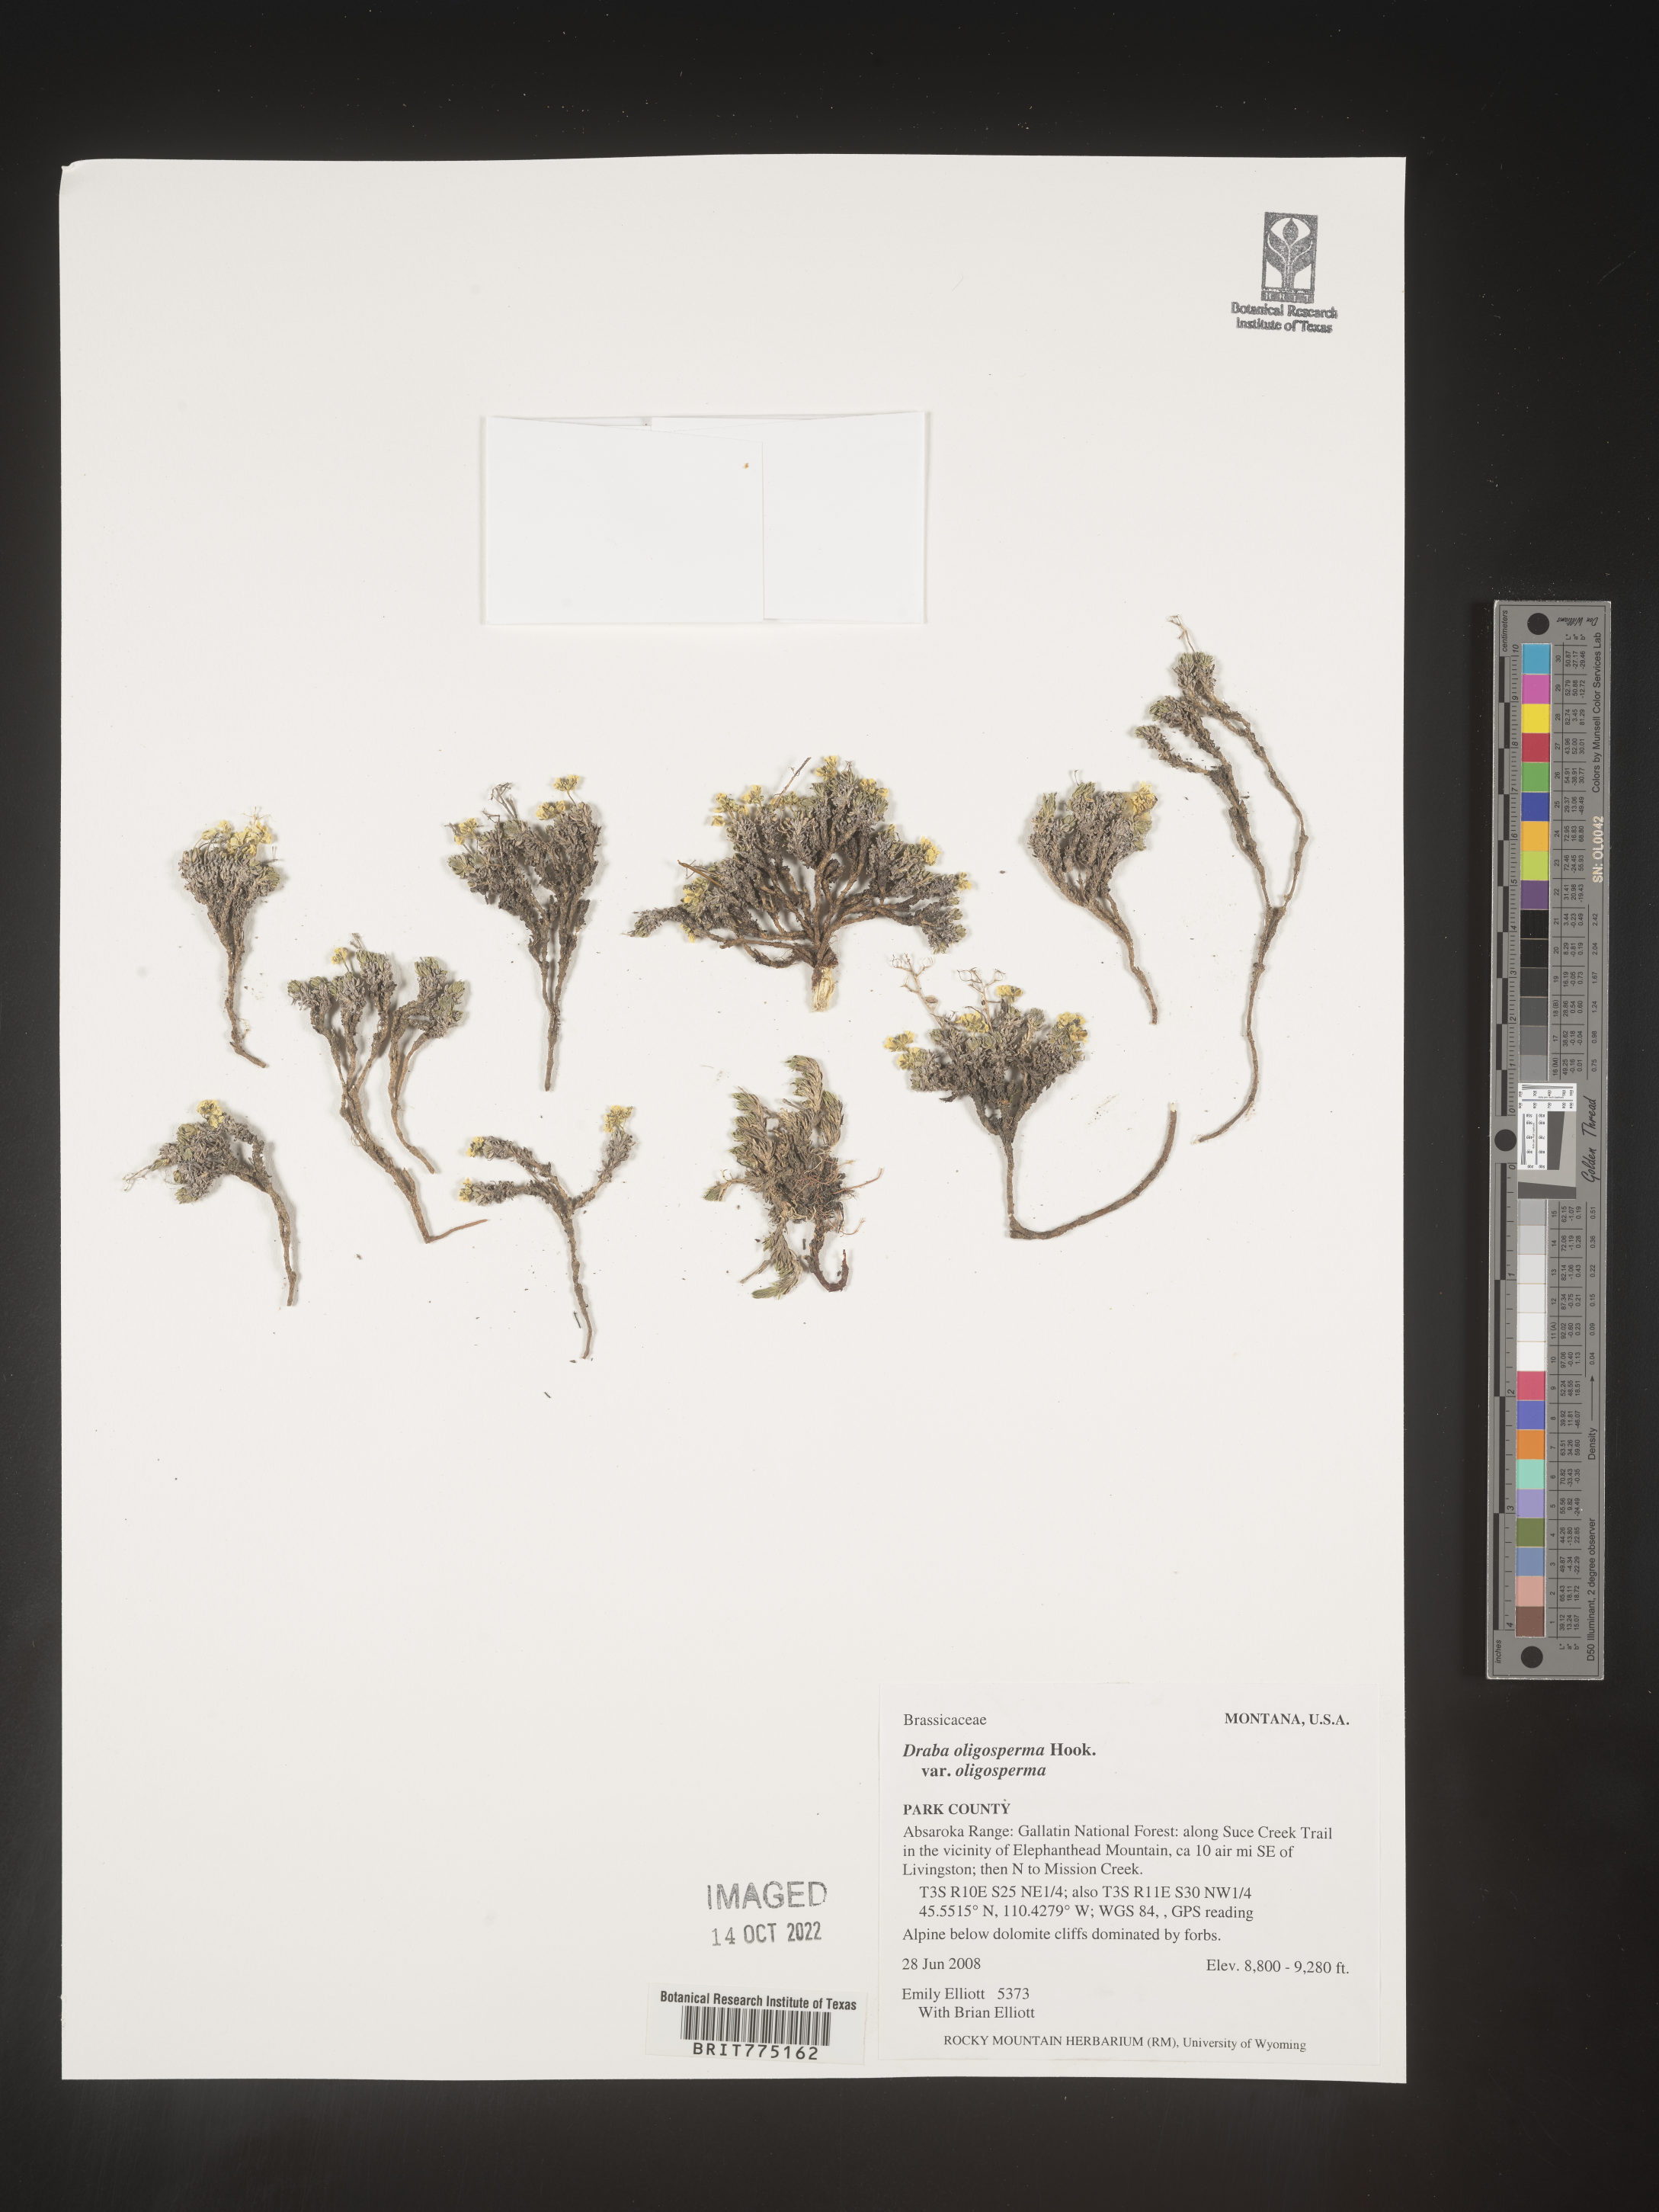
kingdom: Plantae
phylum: Tracheophyta
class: Magnoliopsida
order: Brassicales
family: Brassicaceae
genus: Draba
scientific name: Draba
